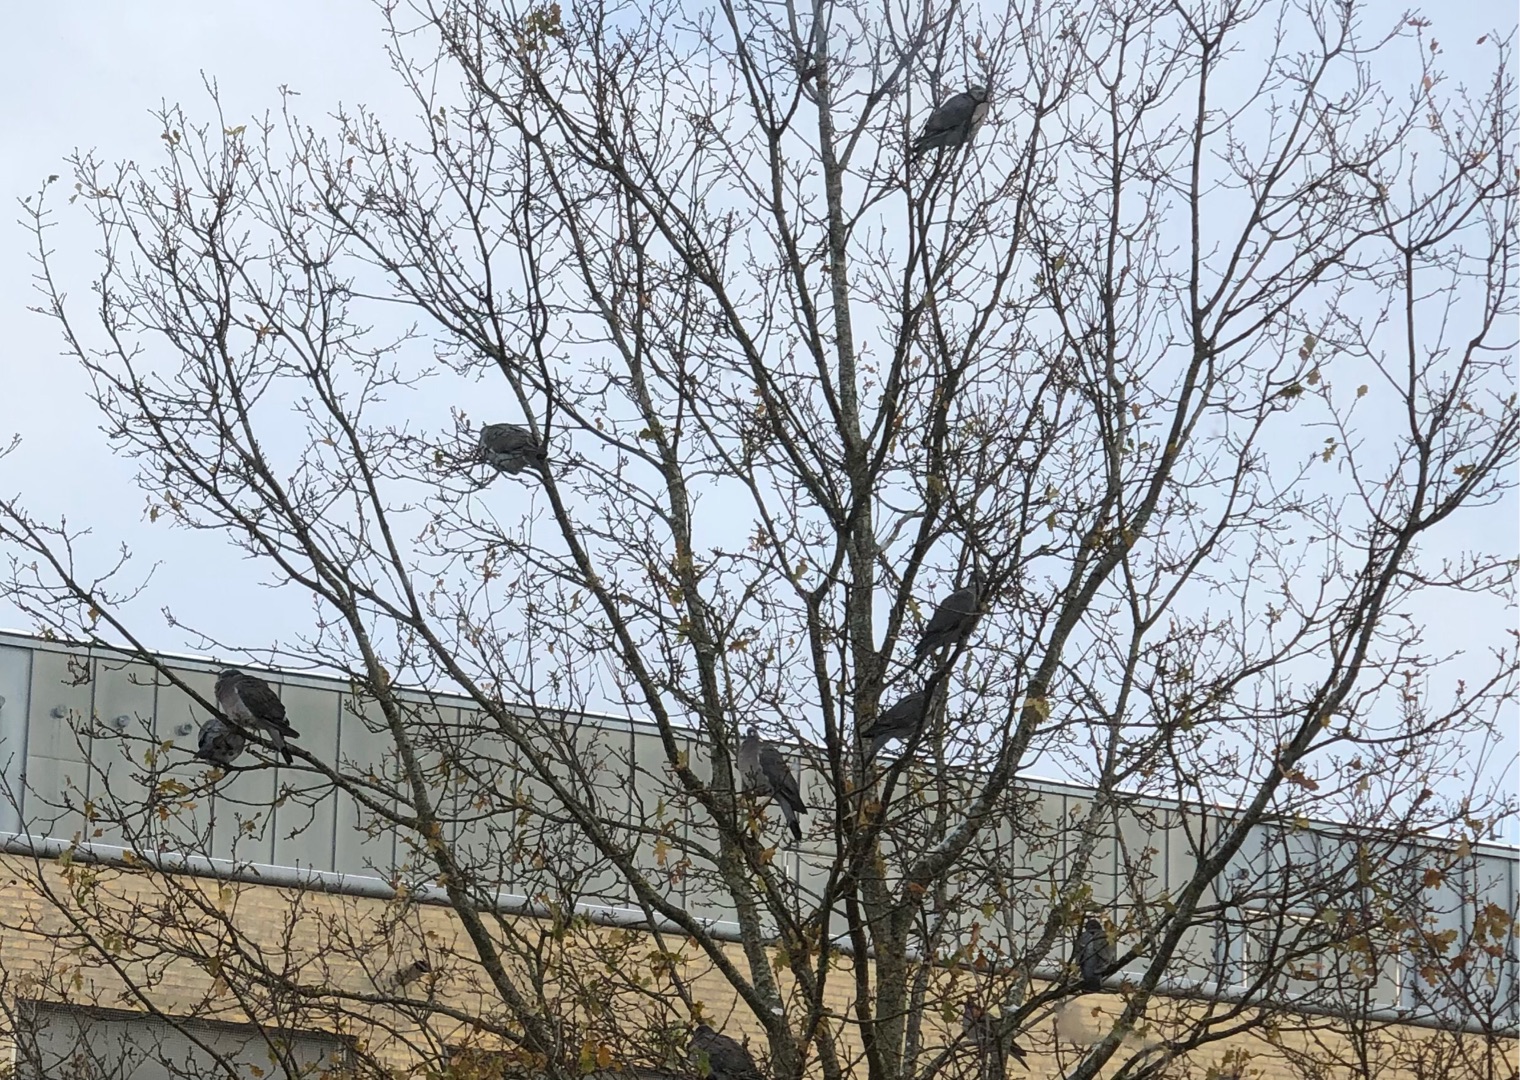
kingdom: Animalia
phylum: Chordata
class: Aves
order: Columbiformes
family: Columbidae
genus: Columba
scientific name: Columba palumbus
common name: Ringdue
